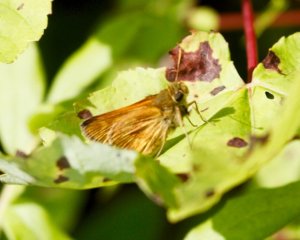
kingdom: Animalia
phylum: Arthropoda
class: Insecta
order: Lepidoptera
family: Hesperiidae
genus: Polites
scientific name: Polites
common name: Long Dash Skipper
